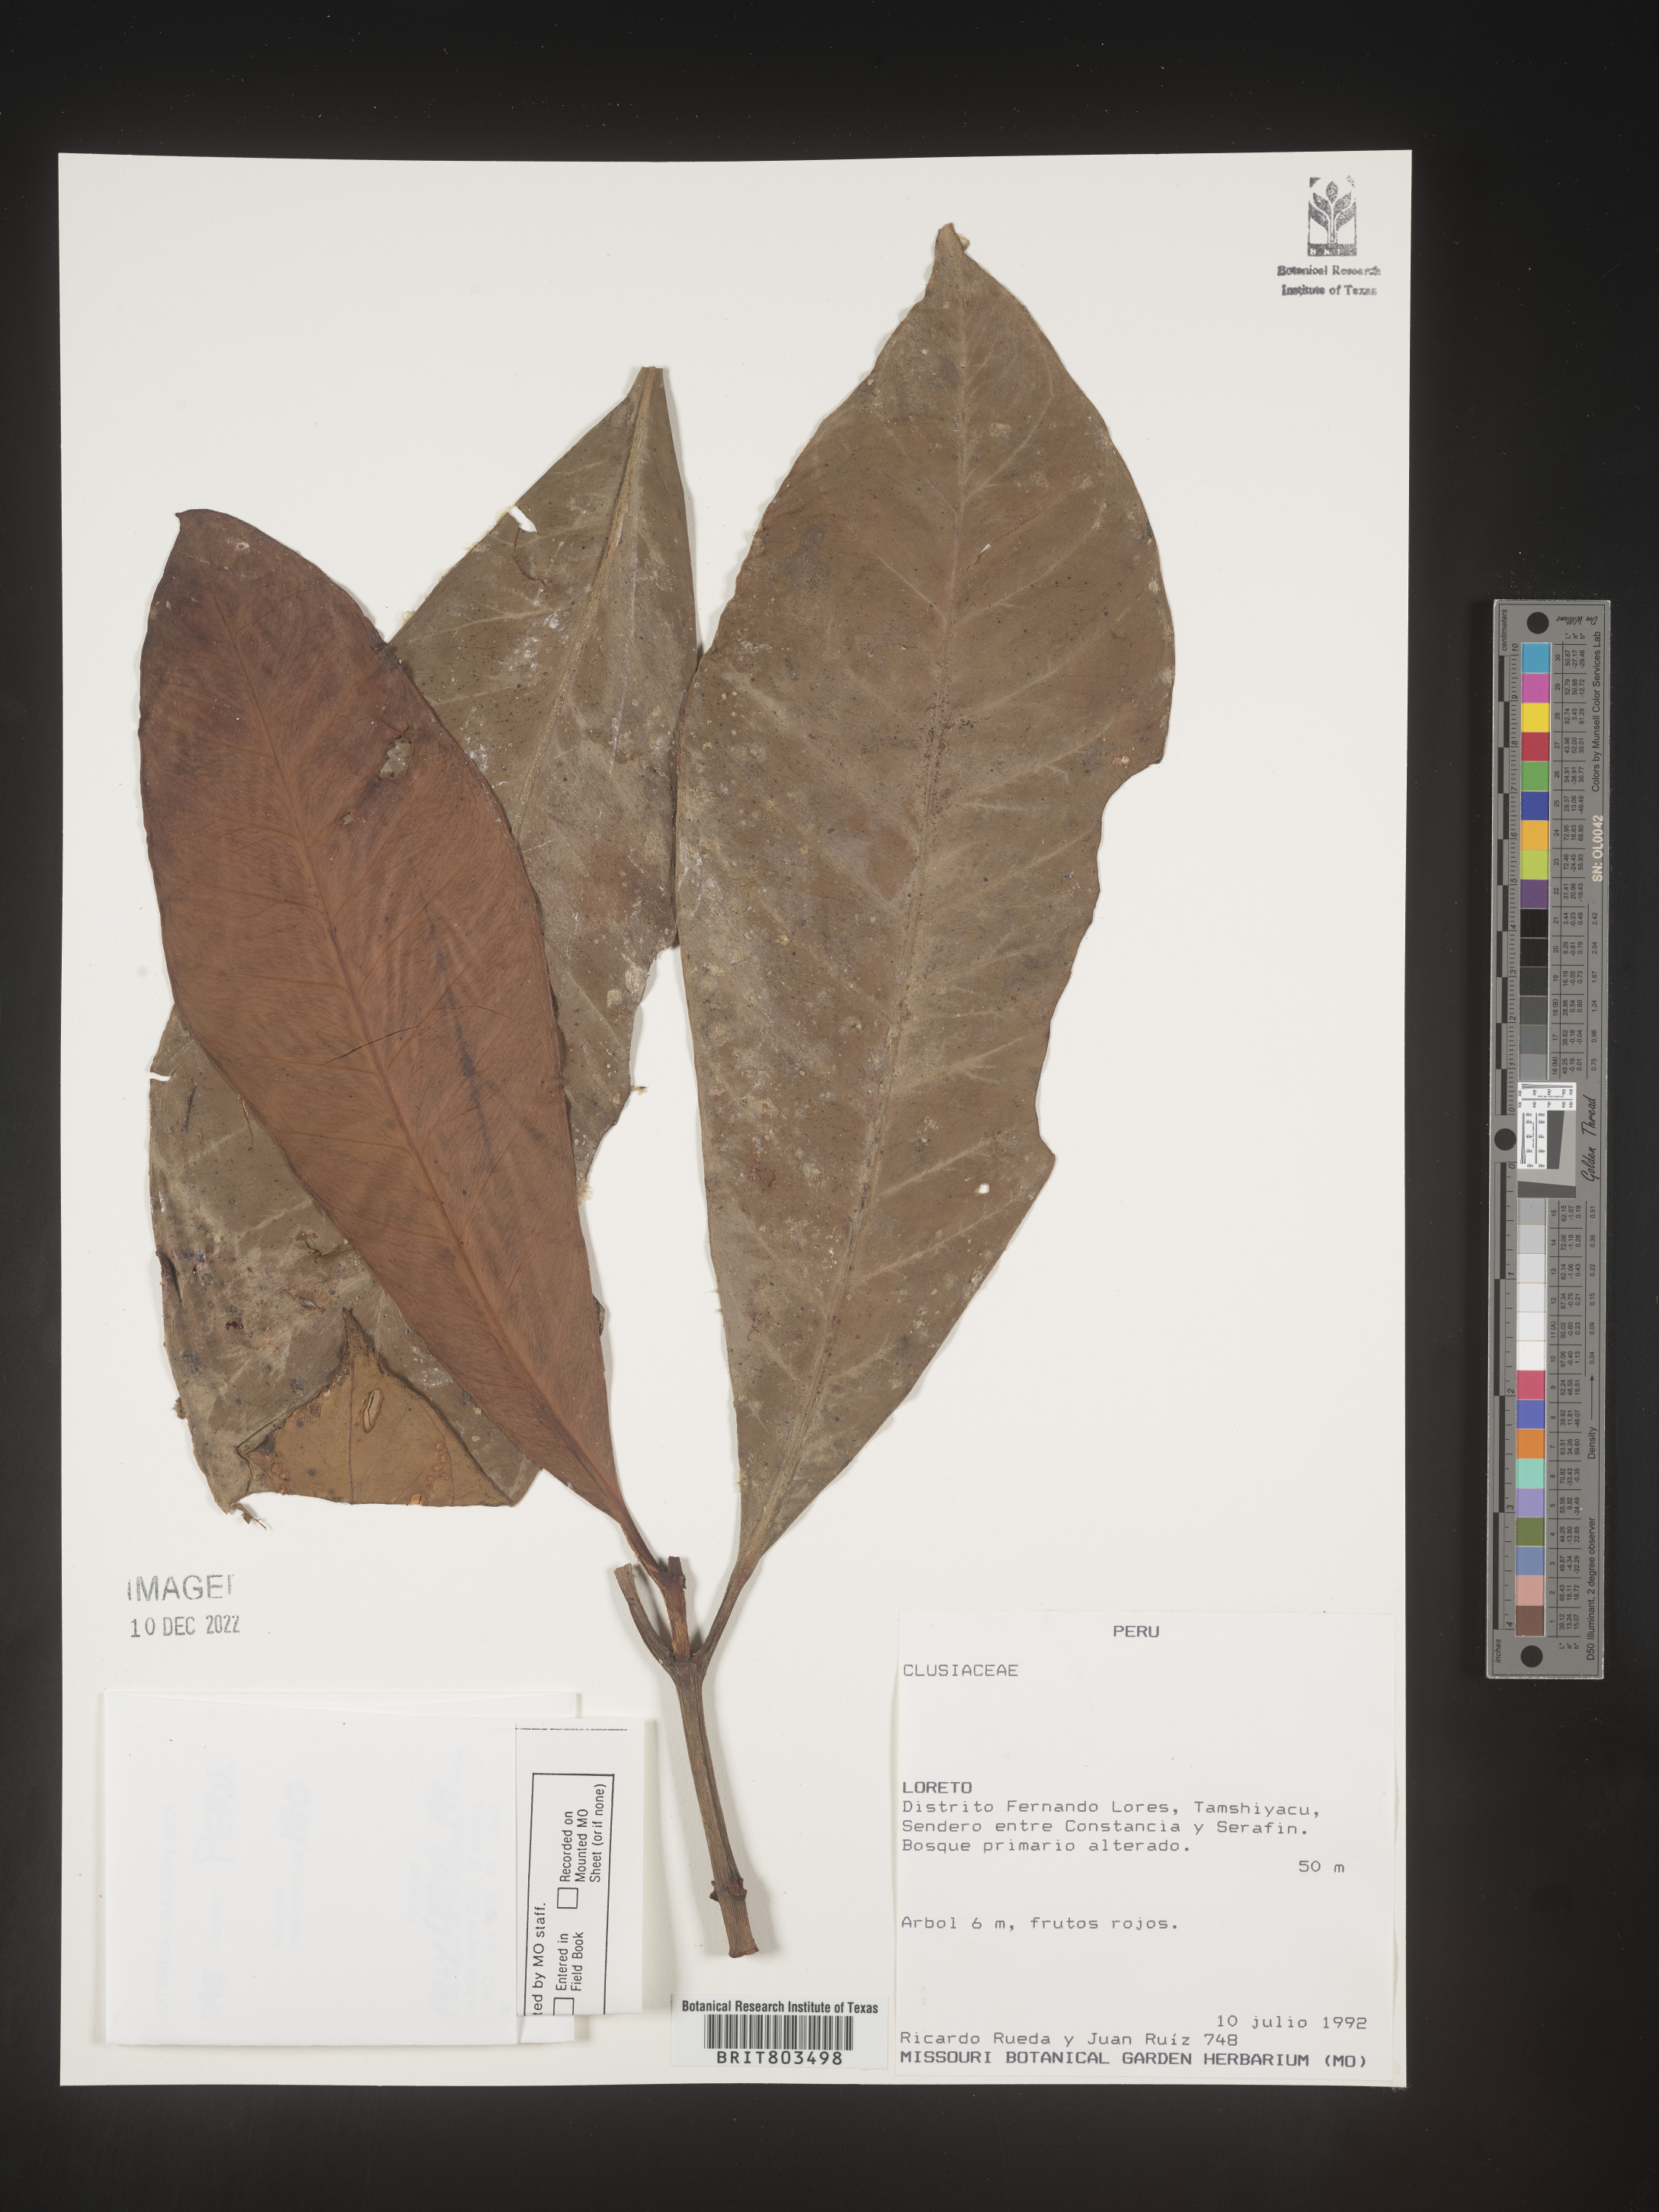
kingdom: Plantae
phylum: Tracheophyta
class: Magnoliopsida
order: Malpighiales
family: Clusiaceae
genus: Tovomita
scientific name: Tovomita
